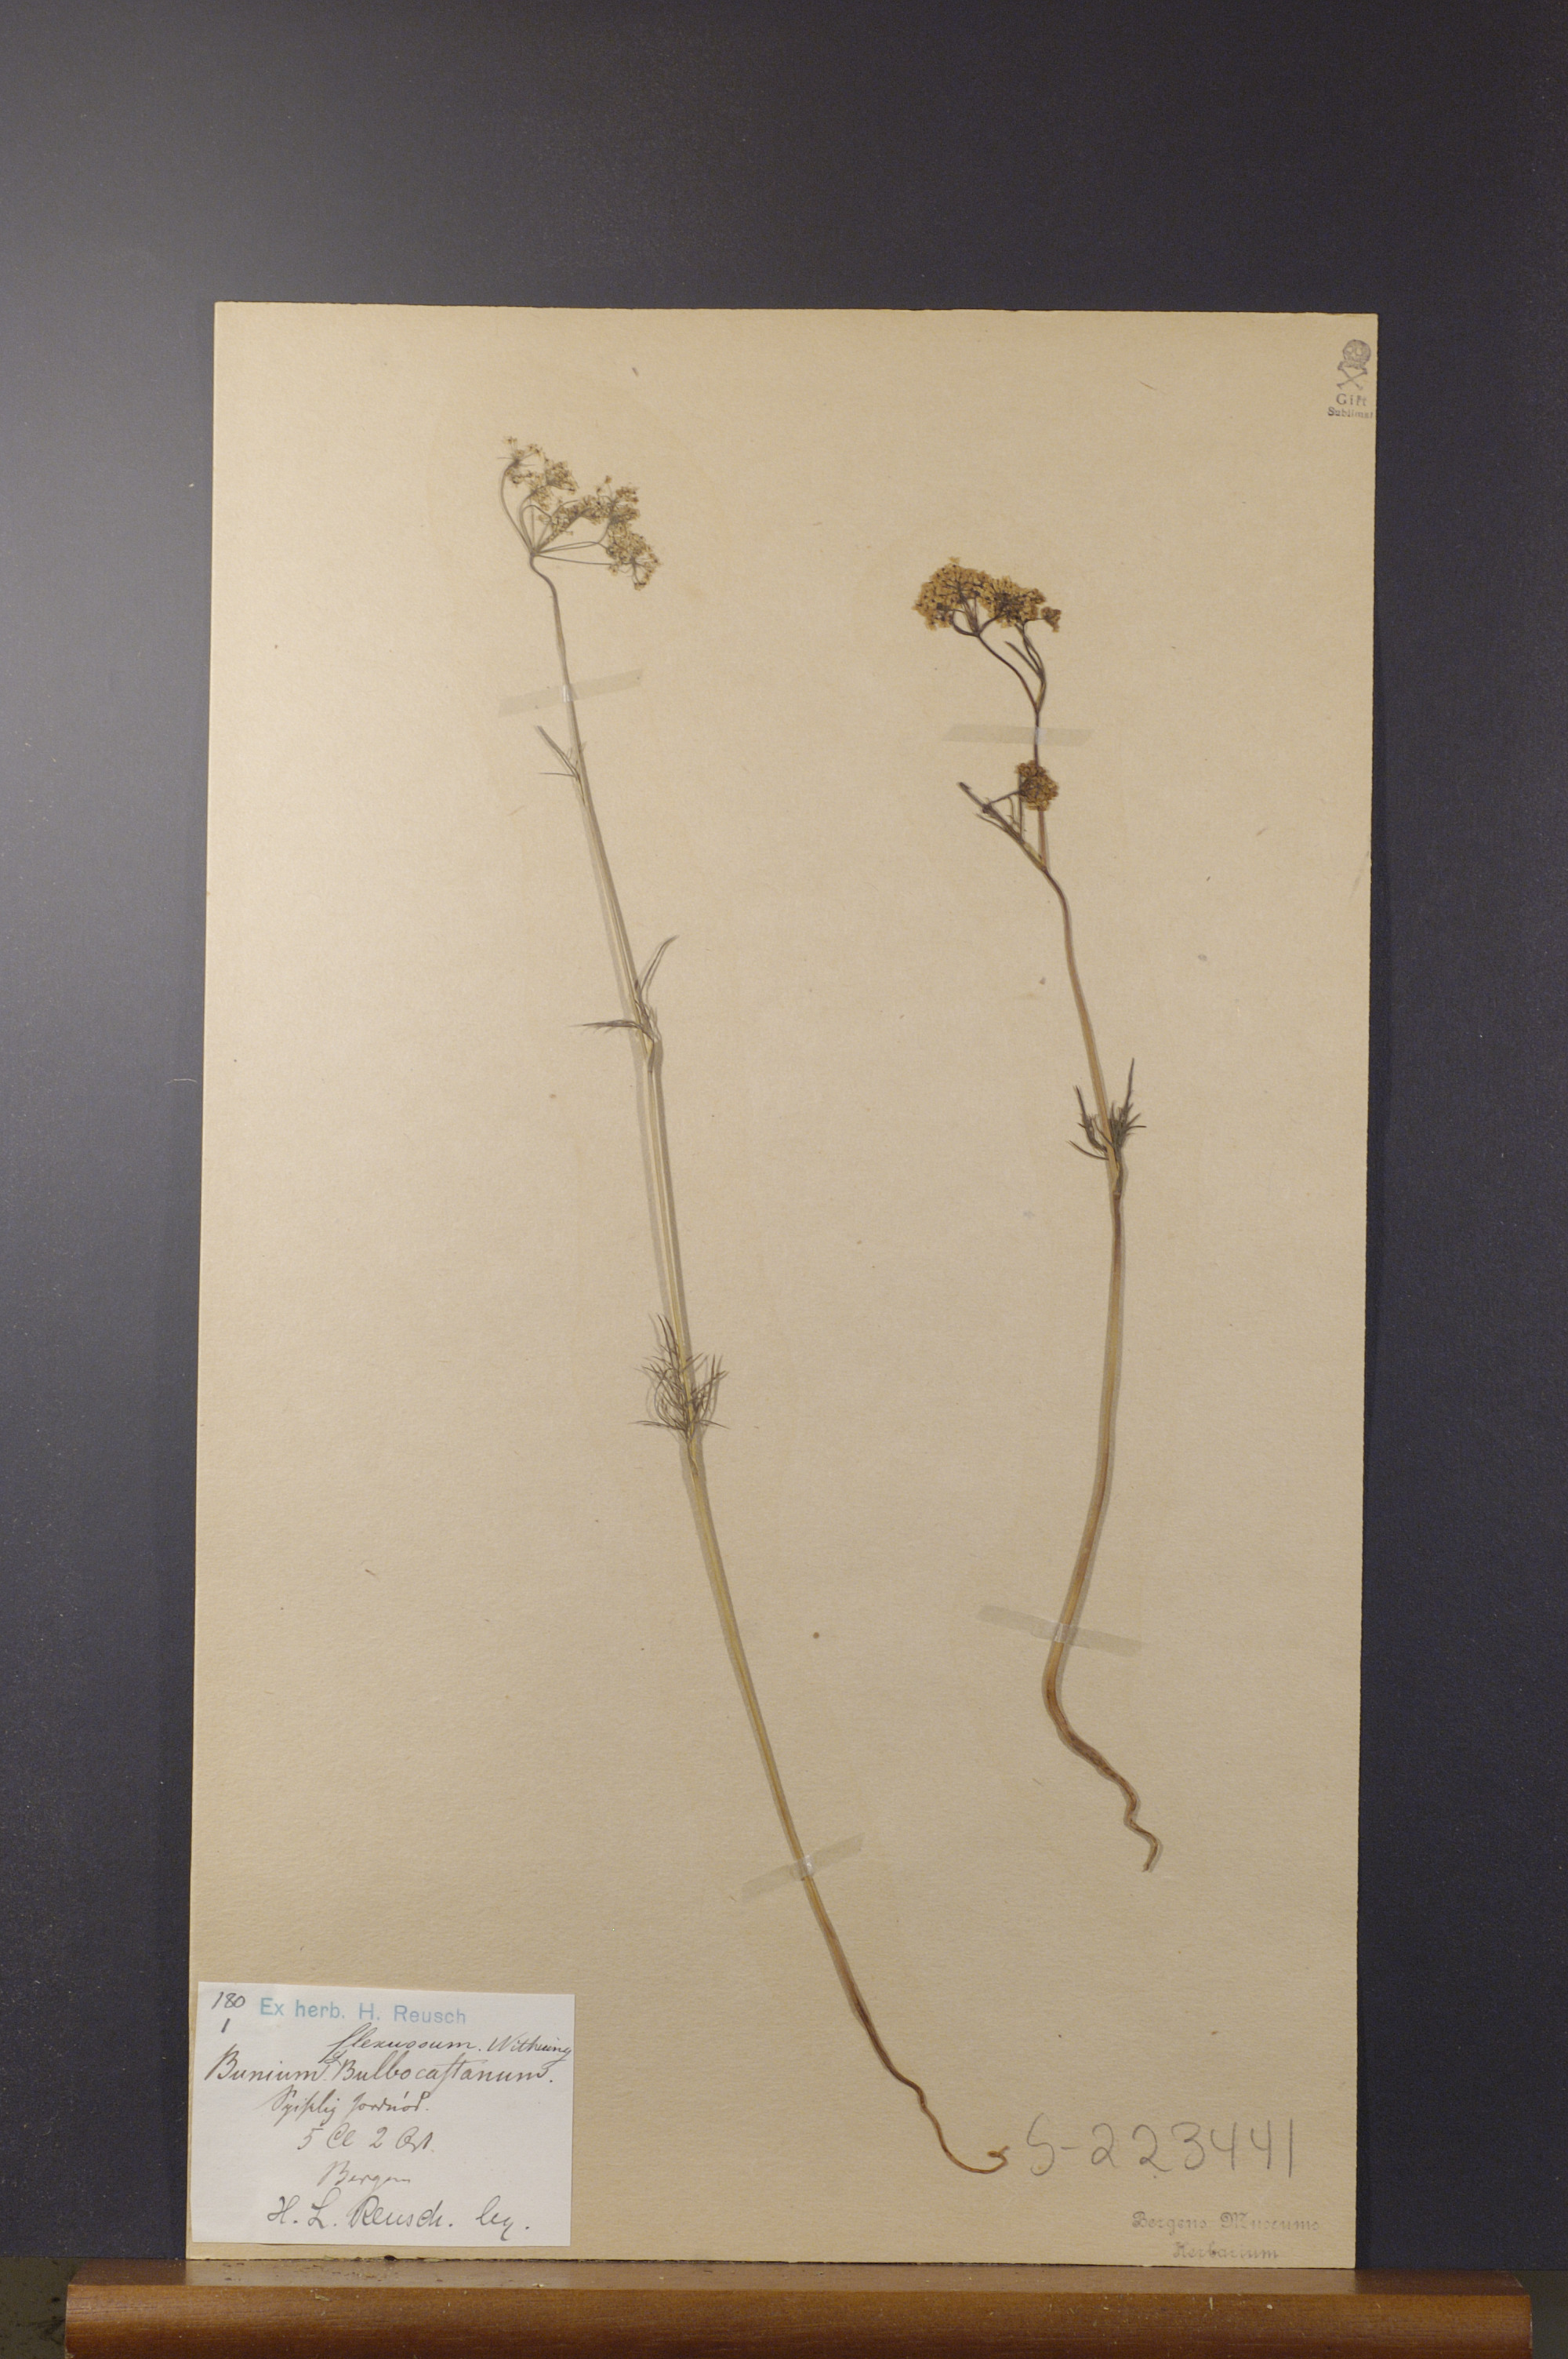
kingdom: Plantae
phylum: Tracheophyta
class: Magnoliopsida
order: Apiales
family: Apiaceae
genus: Bunium
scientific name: Bunium bulbocastanum
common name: Great pignut
